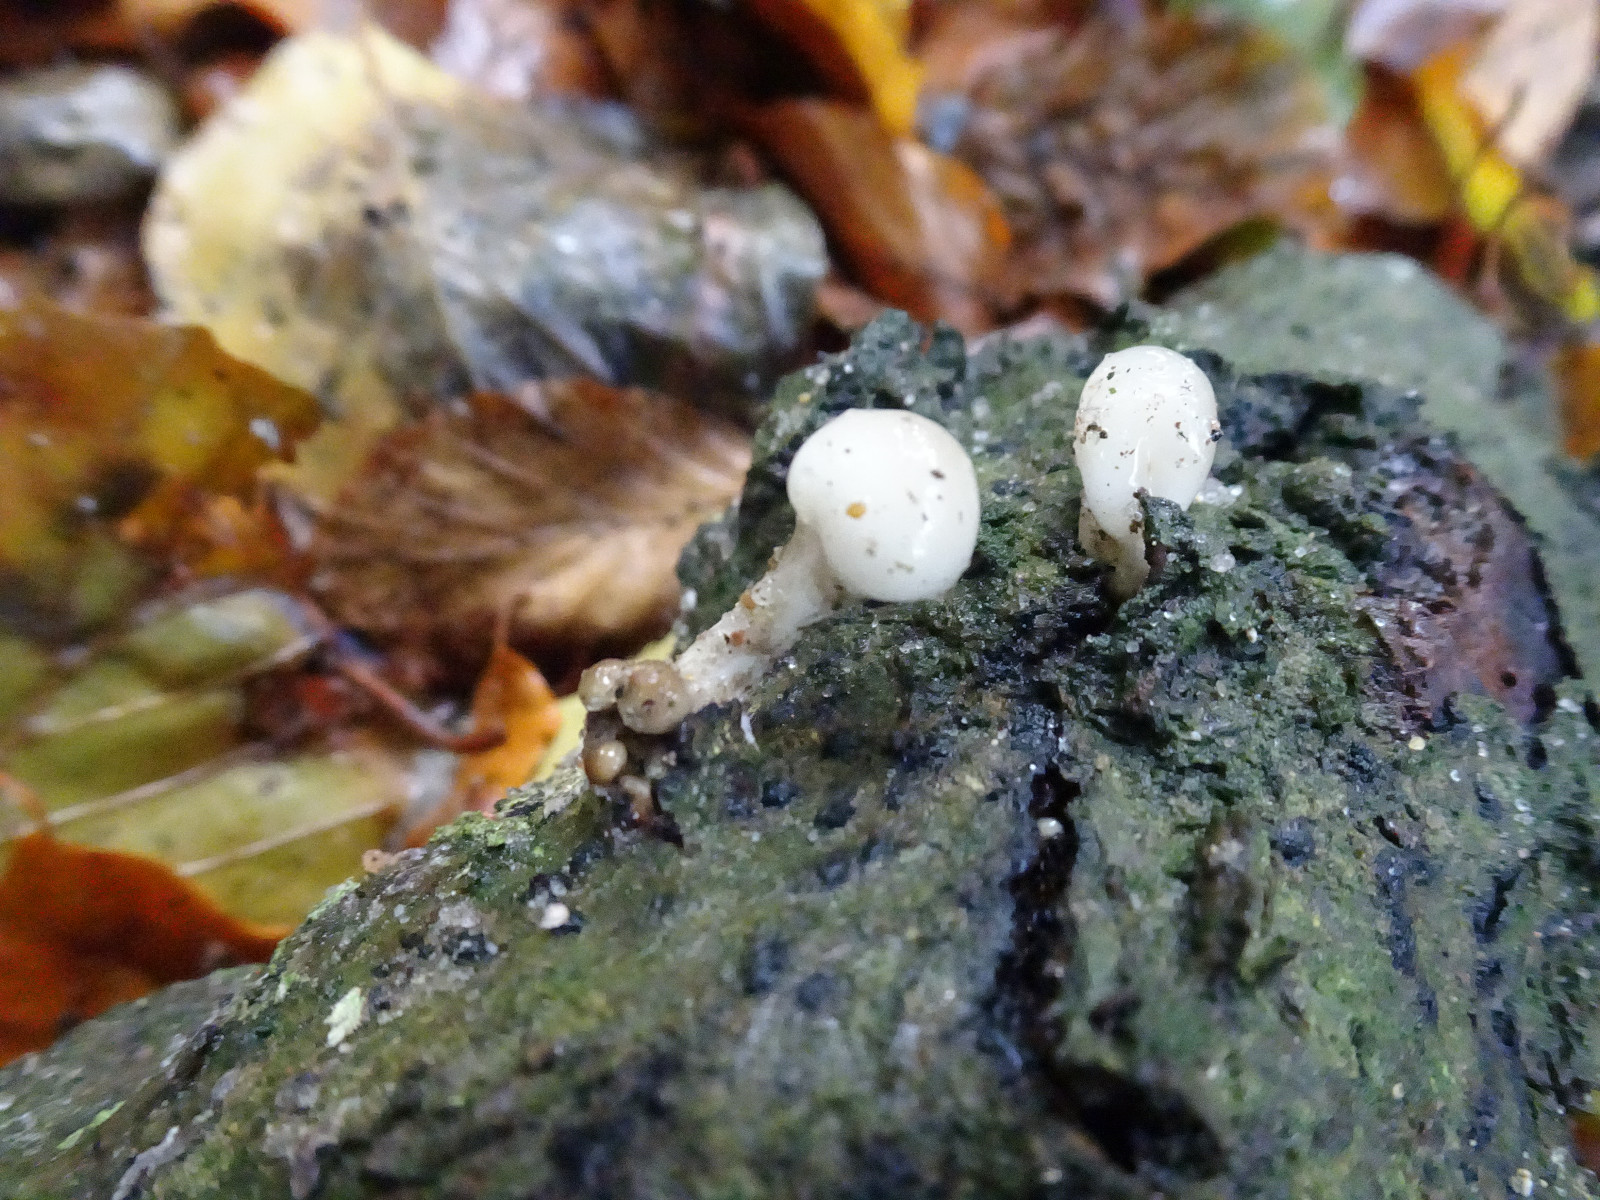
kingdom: Fungi
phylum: Basidiomycota
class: Agaricomycetes
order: Agaricales
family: Physalacriaceae
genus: Mucidula
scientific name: Mucidula mucida
